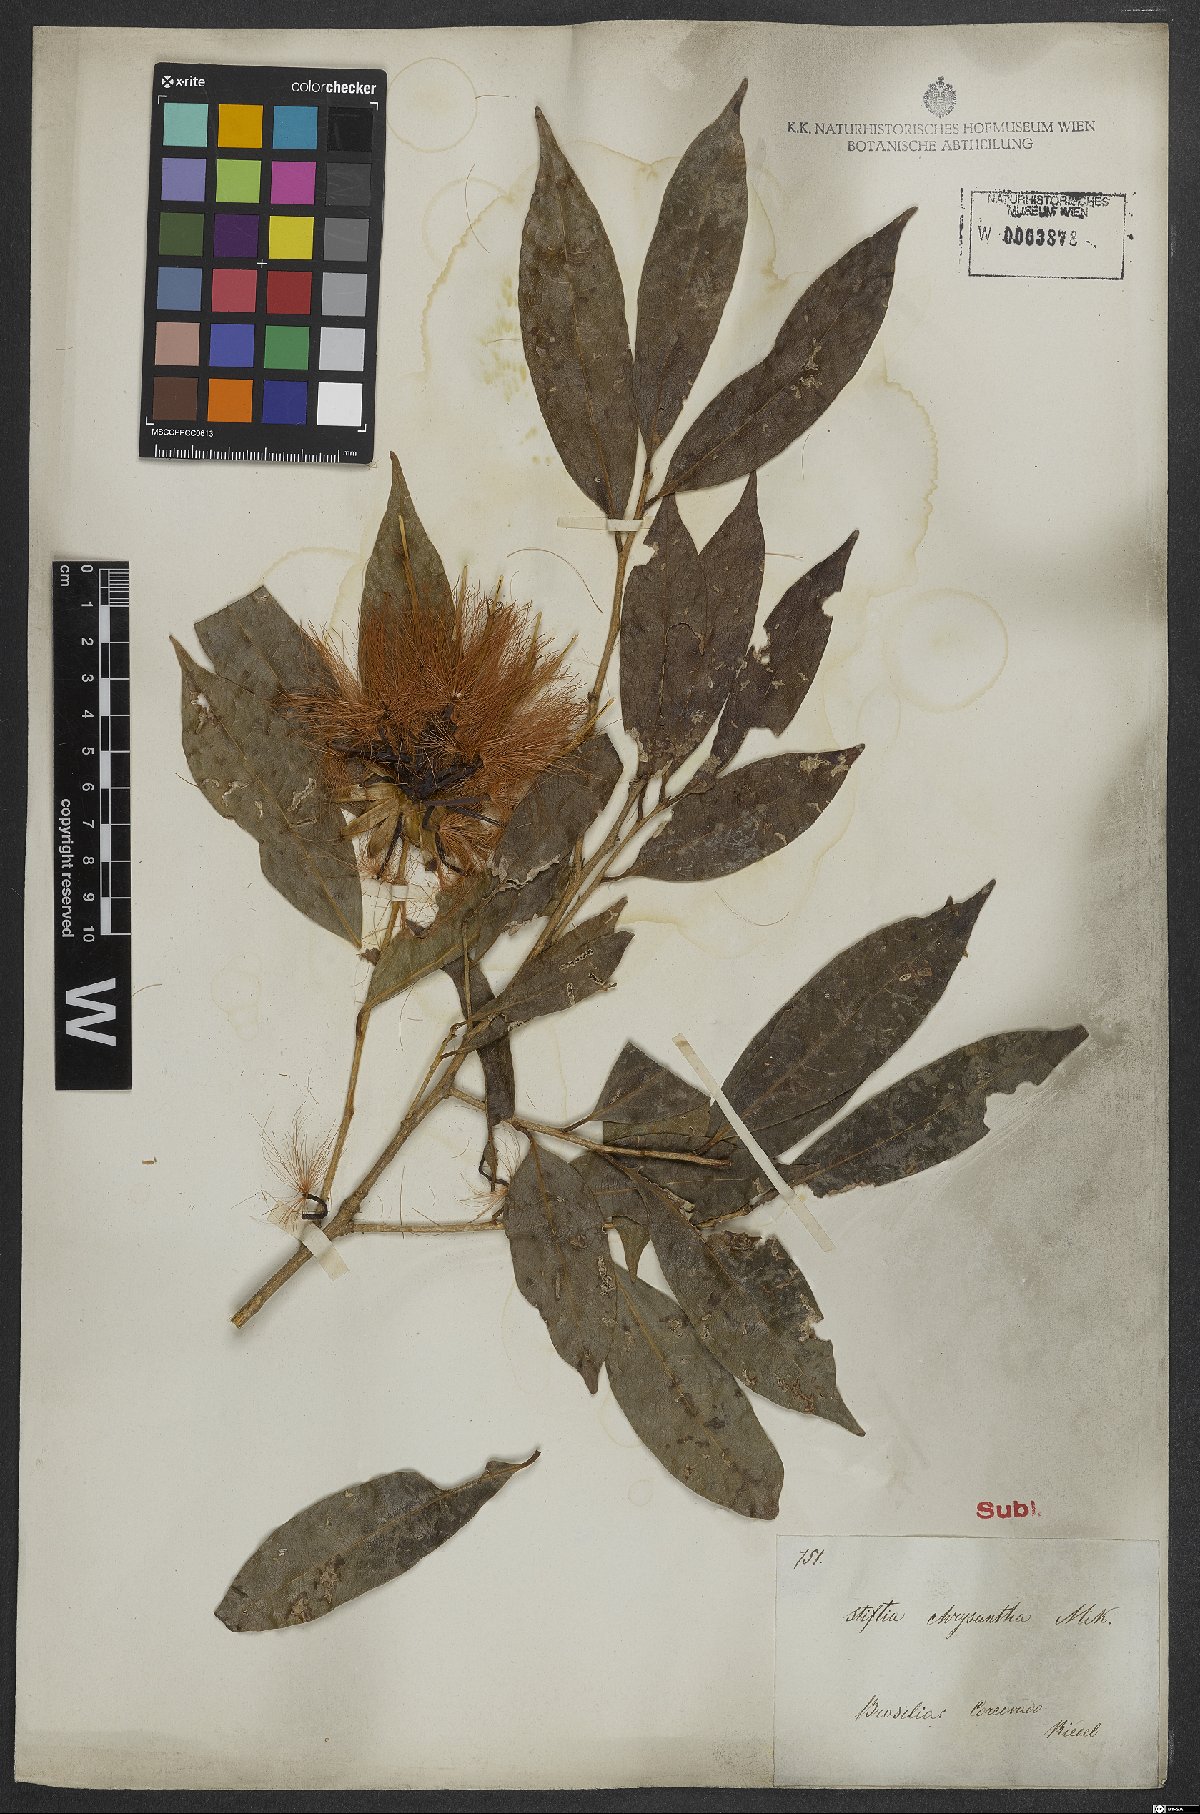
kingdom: Plantae
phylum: Tracheophyta
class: Magnoliopsida
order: Asterales
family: Asteraceae
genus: Stifftia
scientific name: Stifftia chrysantha
